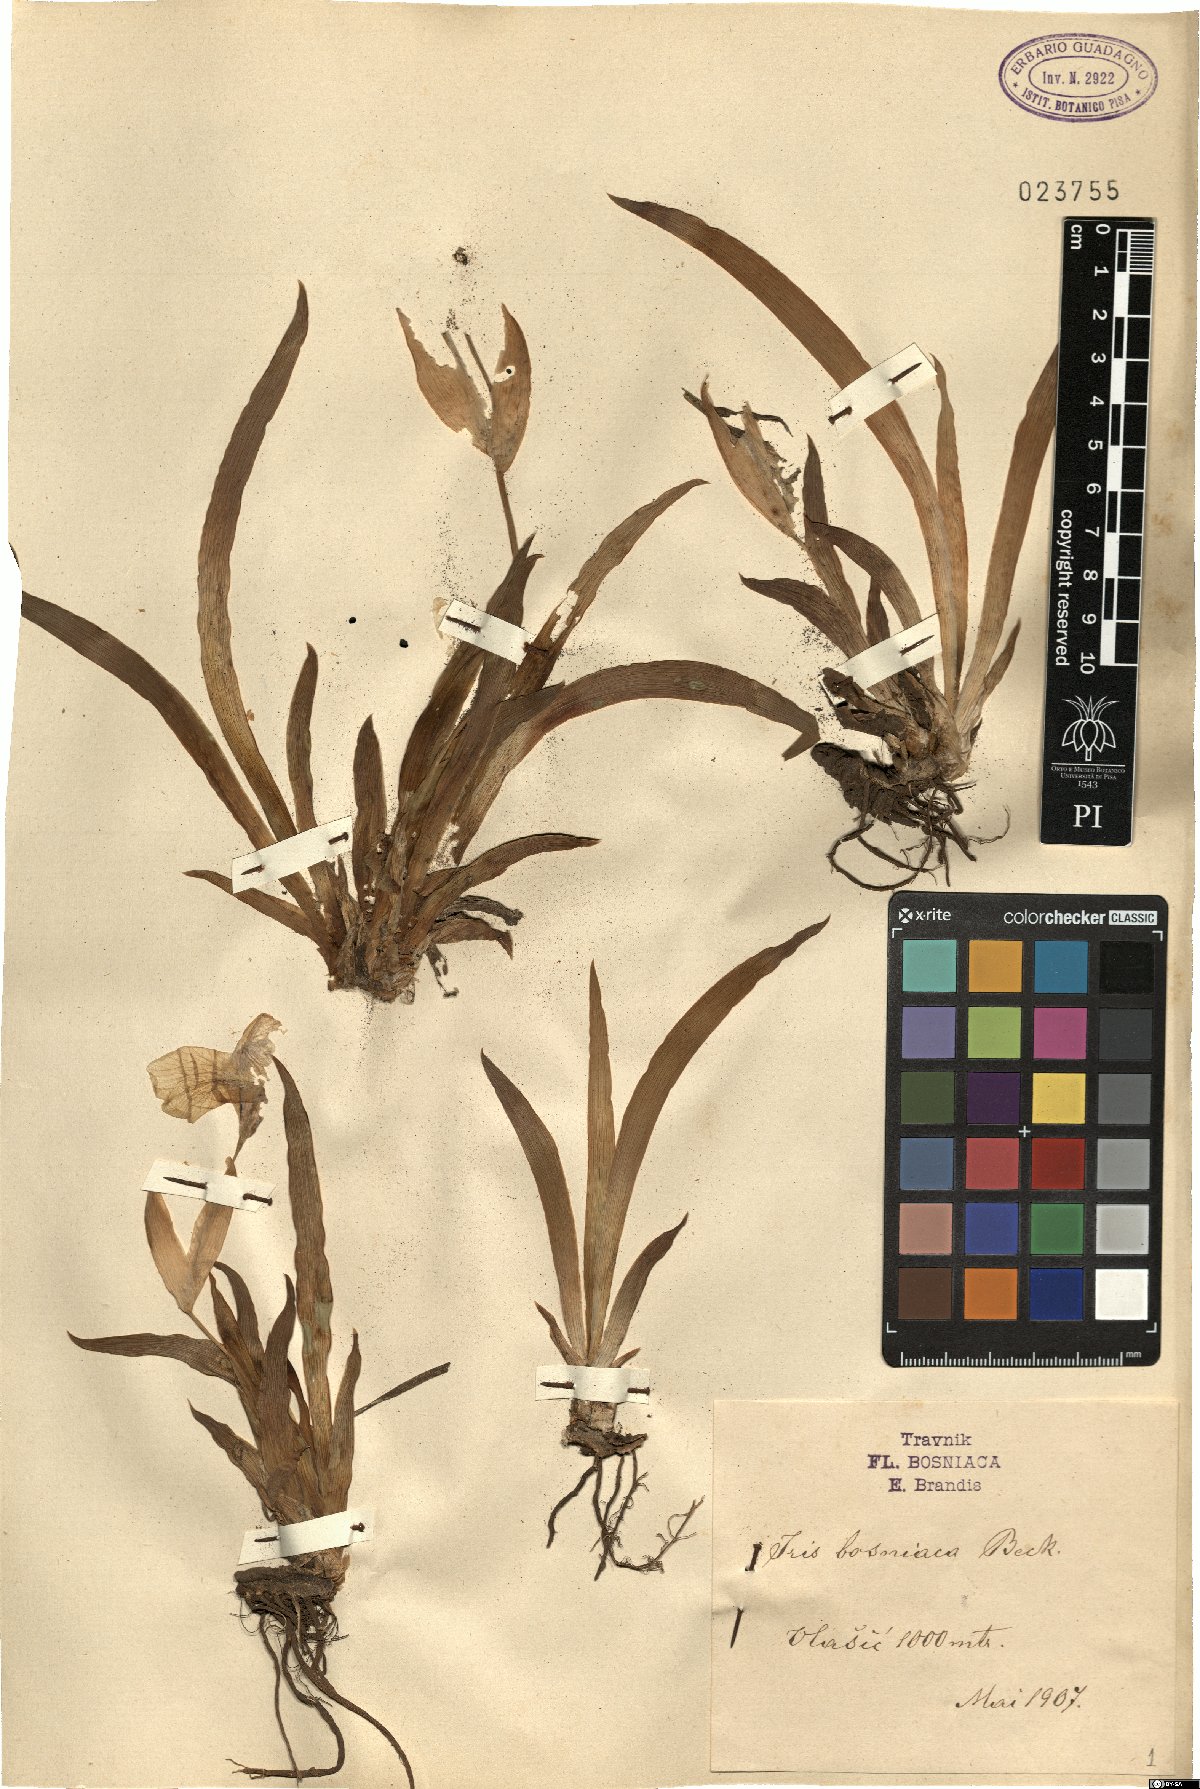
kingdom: Plantae
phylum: Tracheophyta
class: Liliopsida
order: Asparagales
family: Iridaceae
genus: Iris
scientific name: Iris bosniaca
